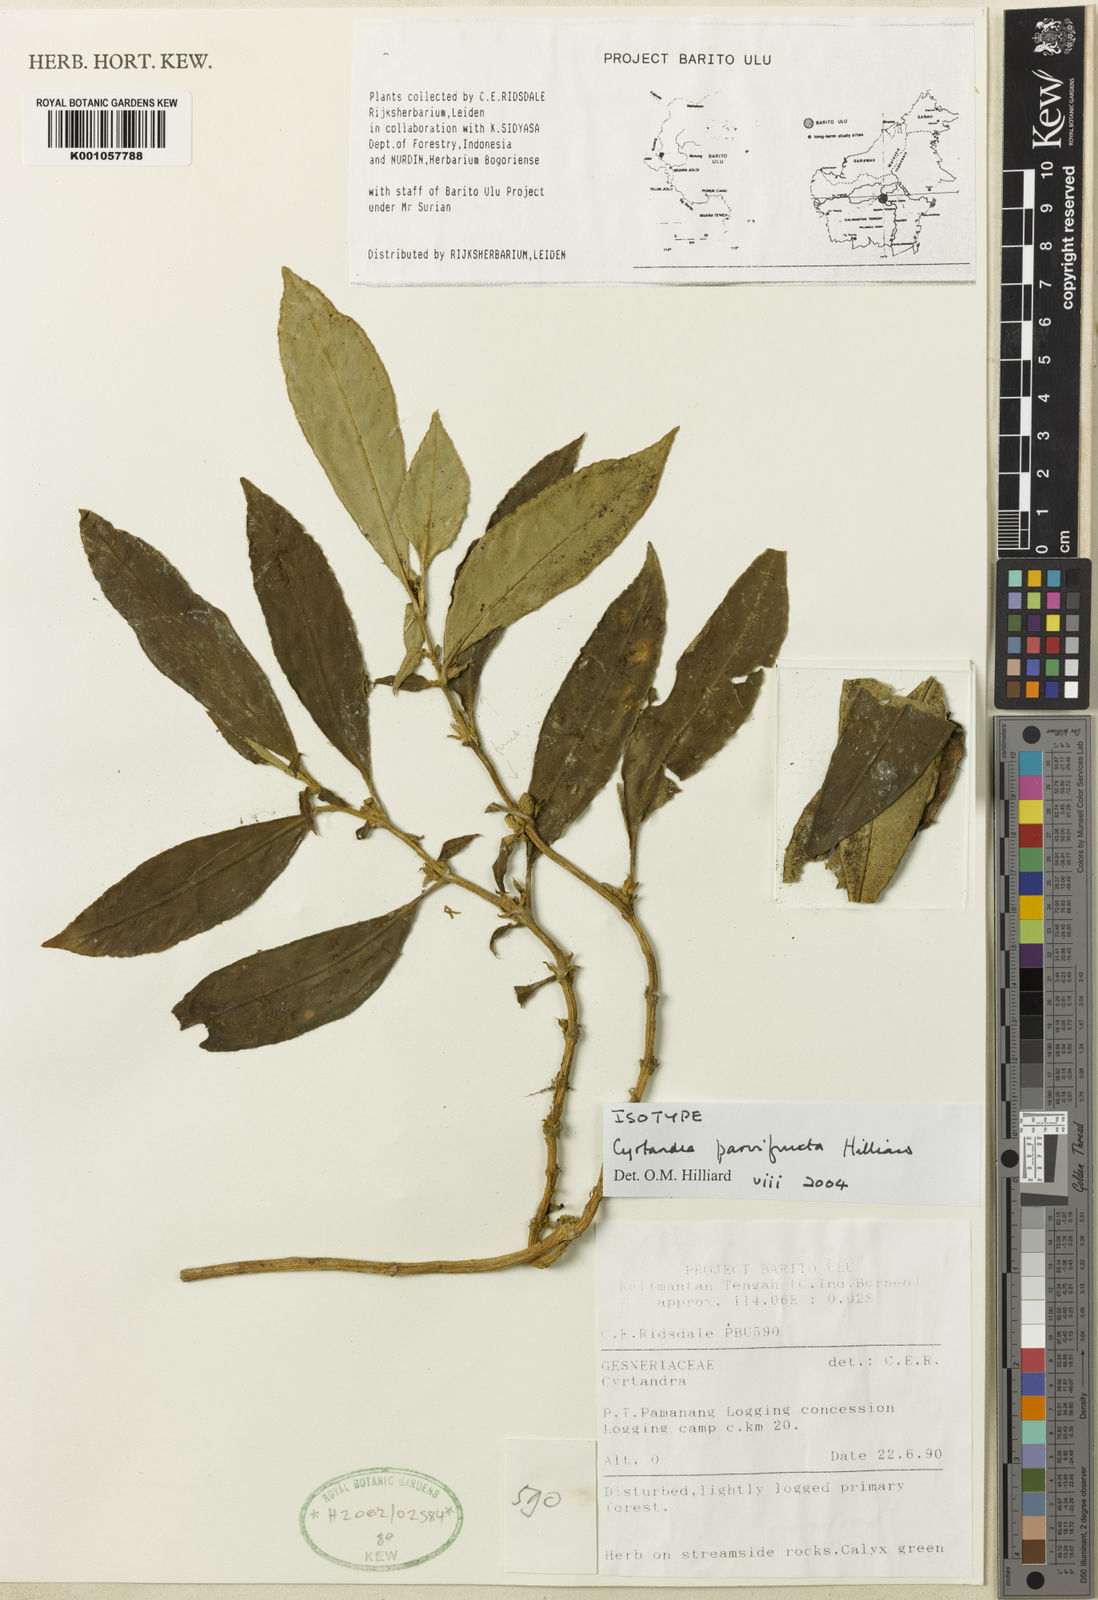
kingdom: Plantae
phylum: Tracheophyta
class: Magnoliopsida
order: Lamiales
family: Gesneriaceae
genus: Cyrtandra
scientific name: Cyrtandra parvifructa
